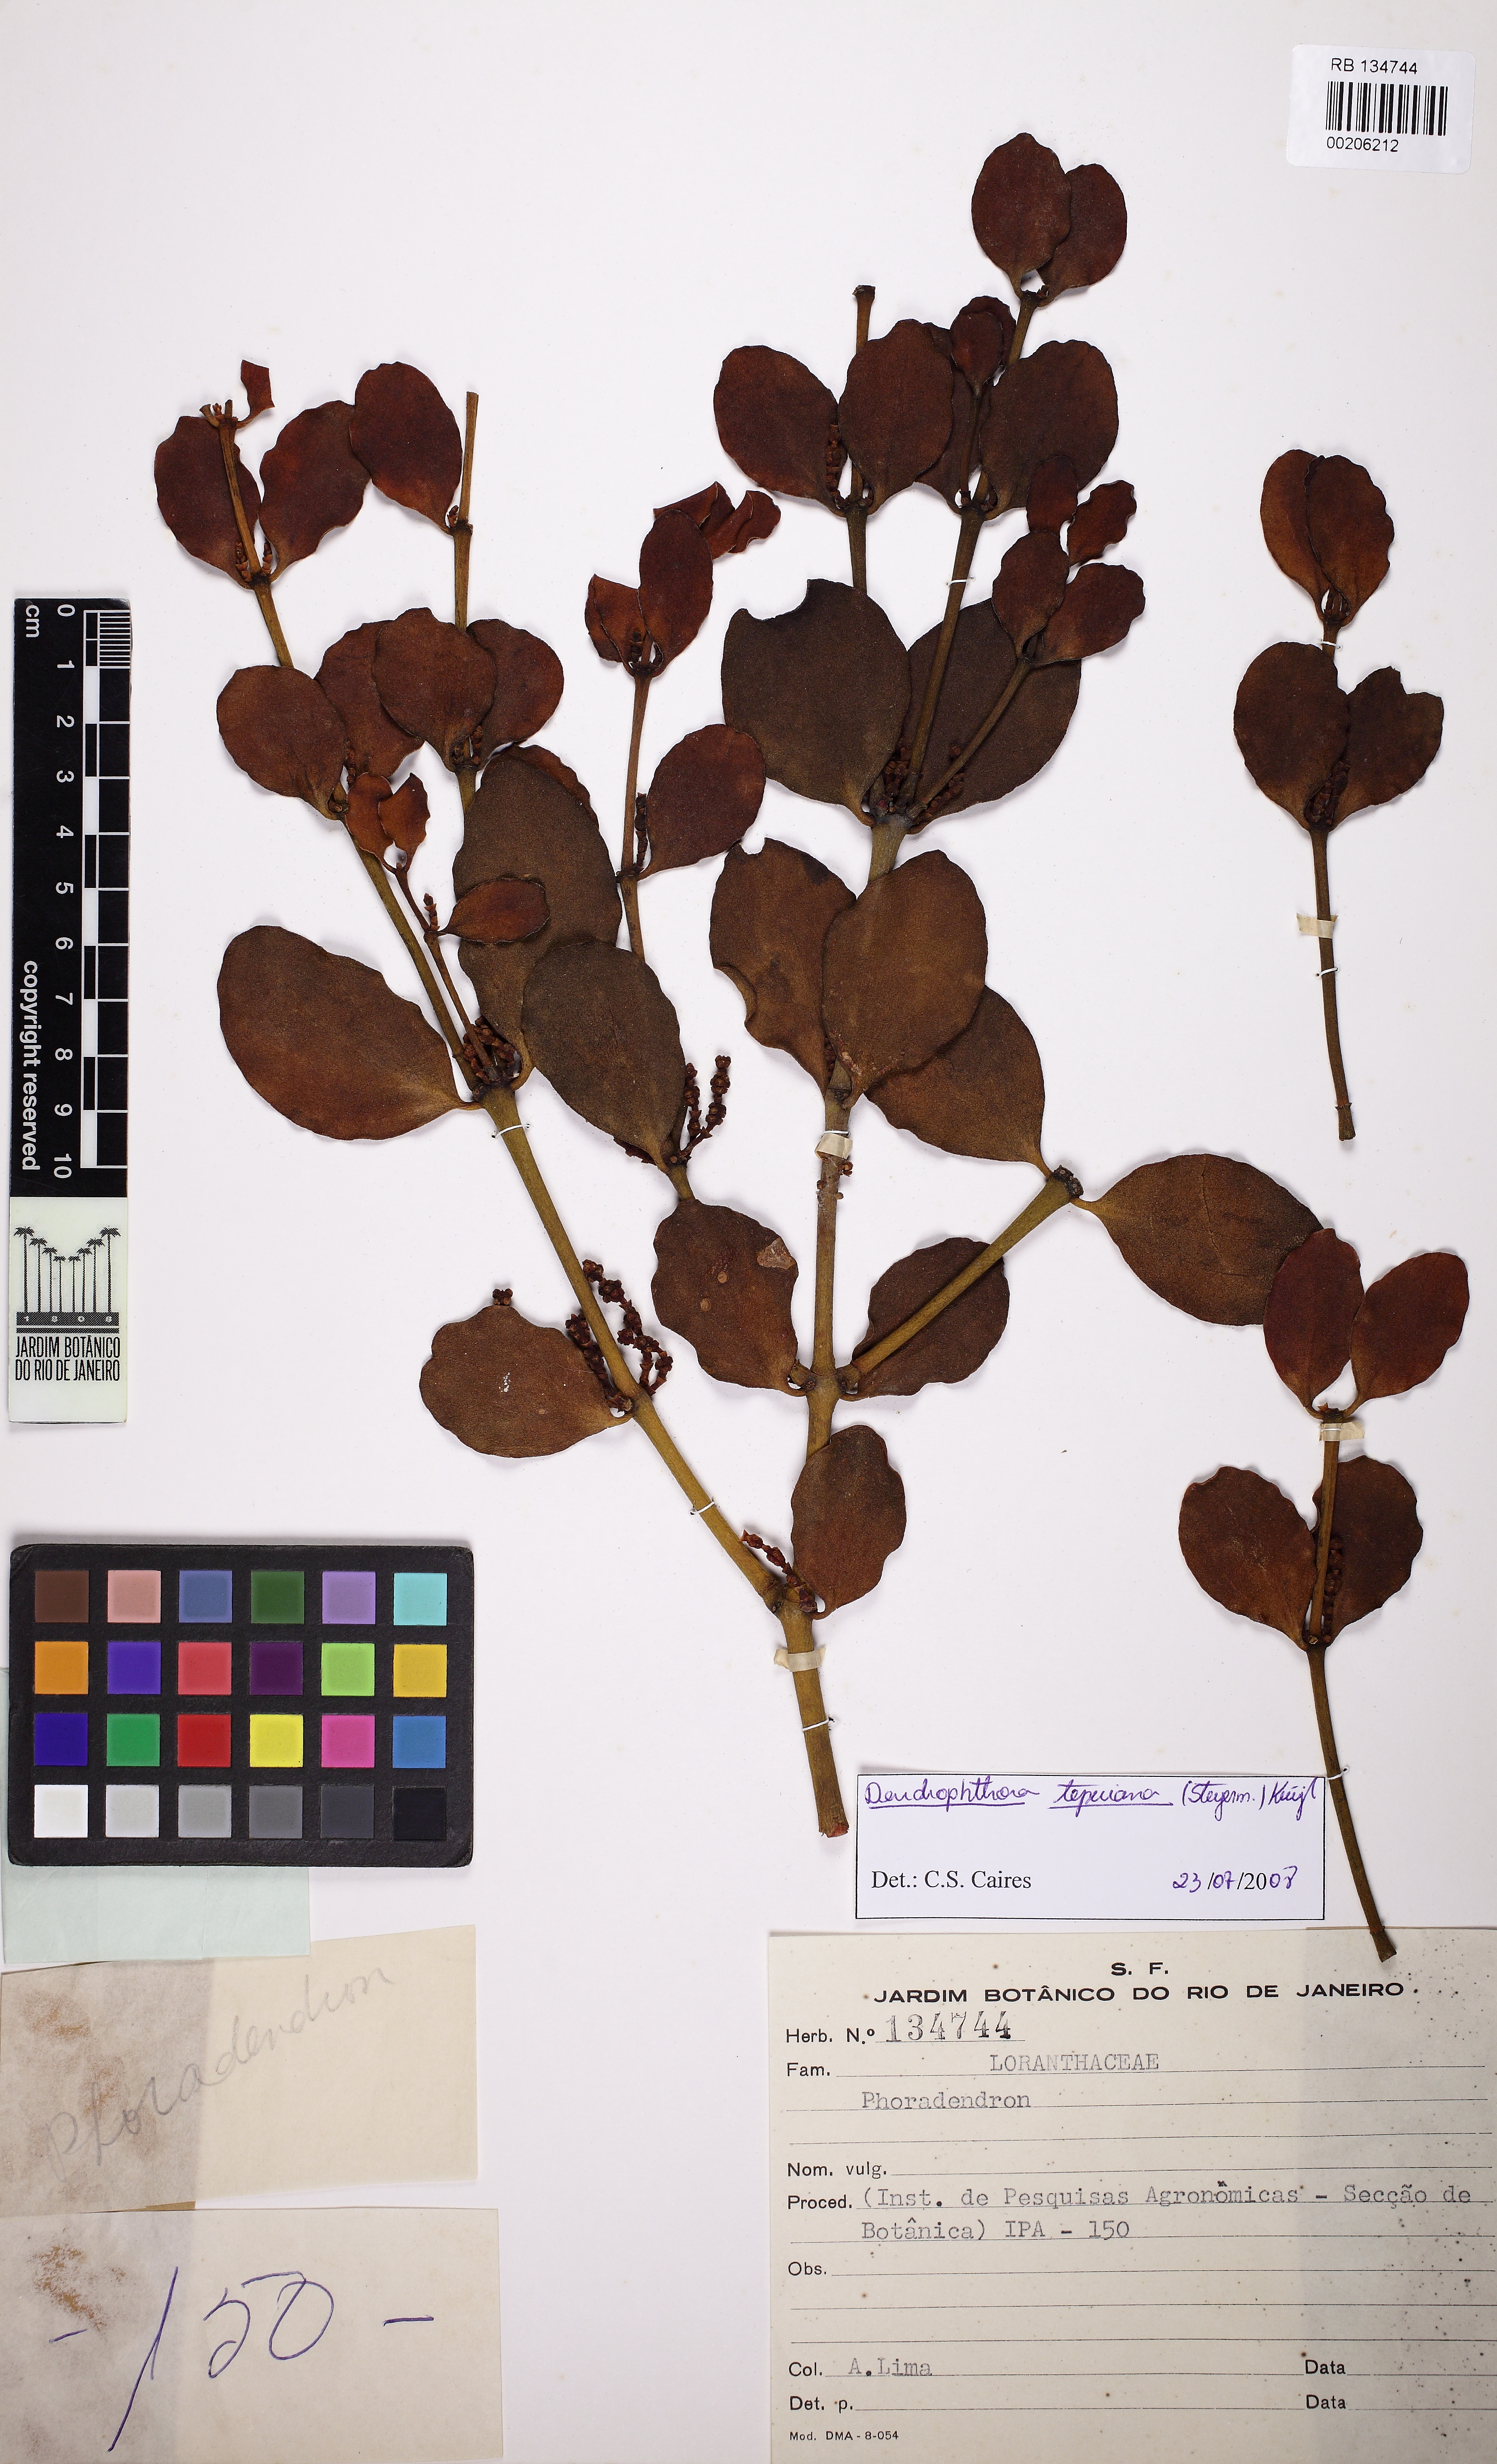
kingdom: Plantae
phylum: Tracheophyta
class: Magnoliopsida
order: Santalales
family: Viscaceae
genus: Dendrophthora
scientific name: Dendrophthora warmingii
